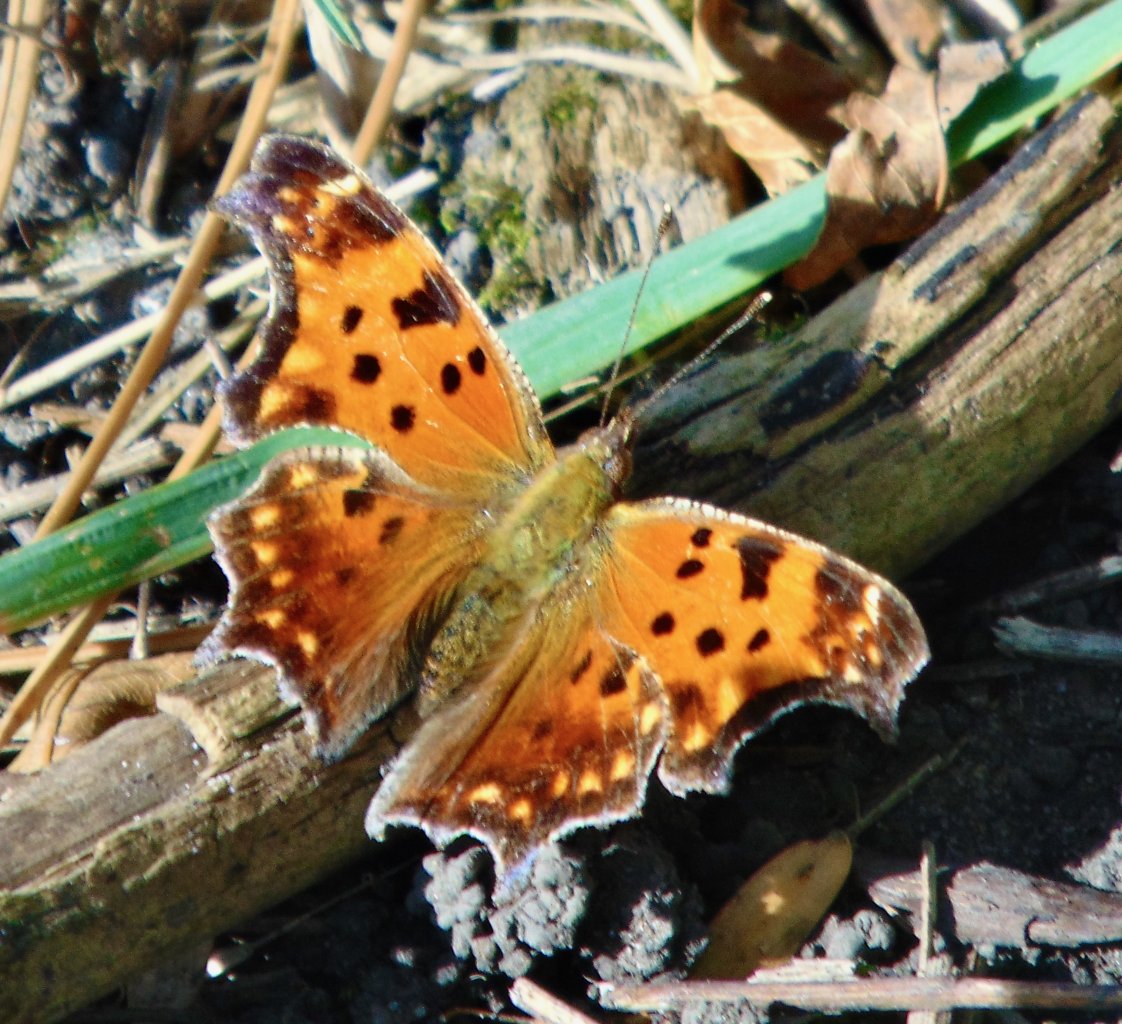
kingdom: Animalia
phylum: Arthropoda
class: Insecta
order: Lepidoptera
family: Nymphalidae
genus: Polygonia
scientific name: Polygonia comma
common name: Eastern Comma
